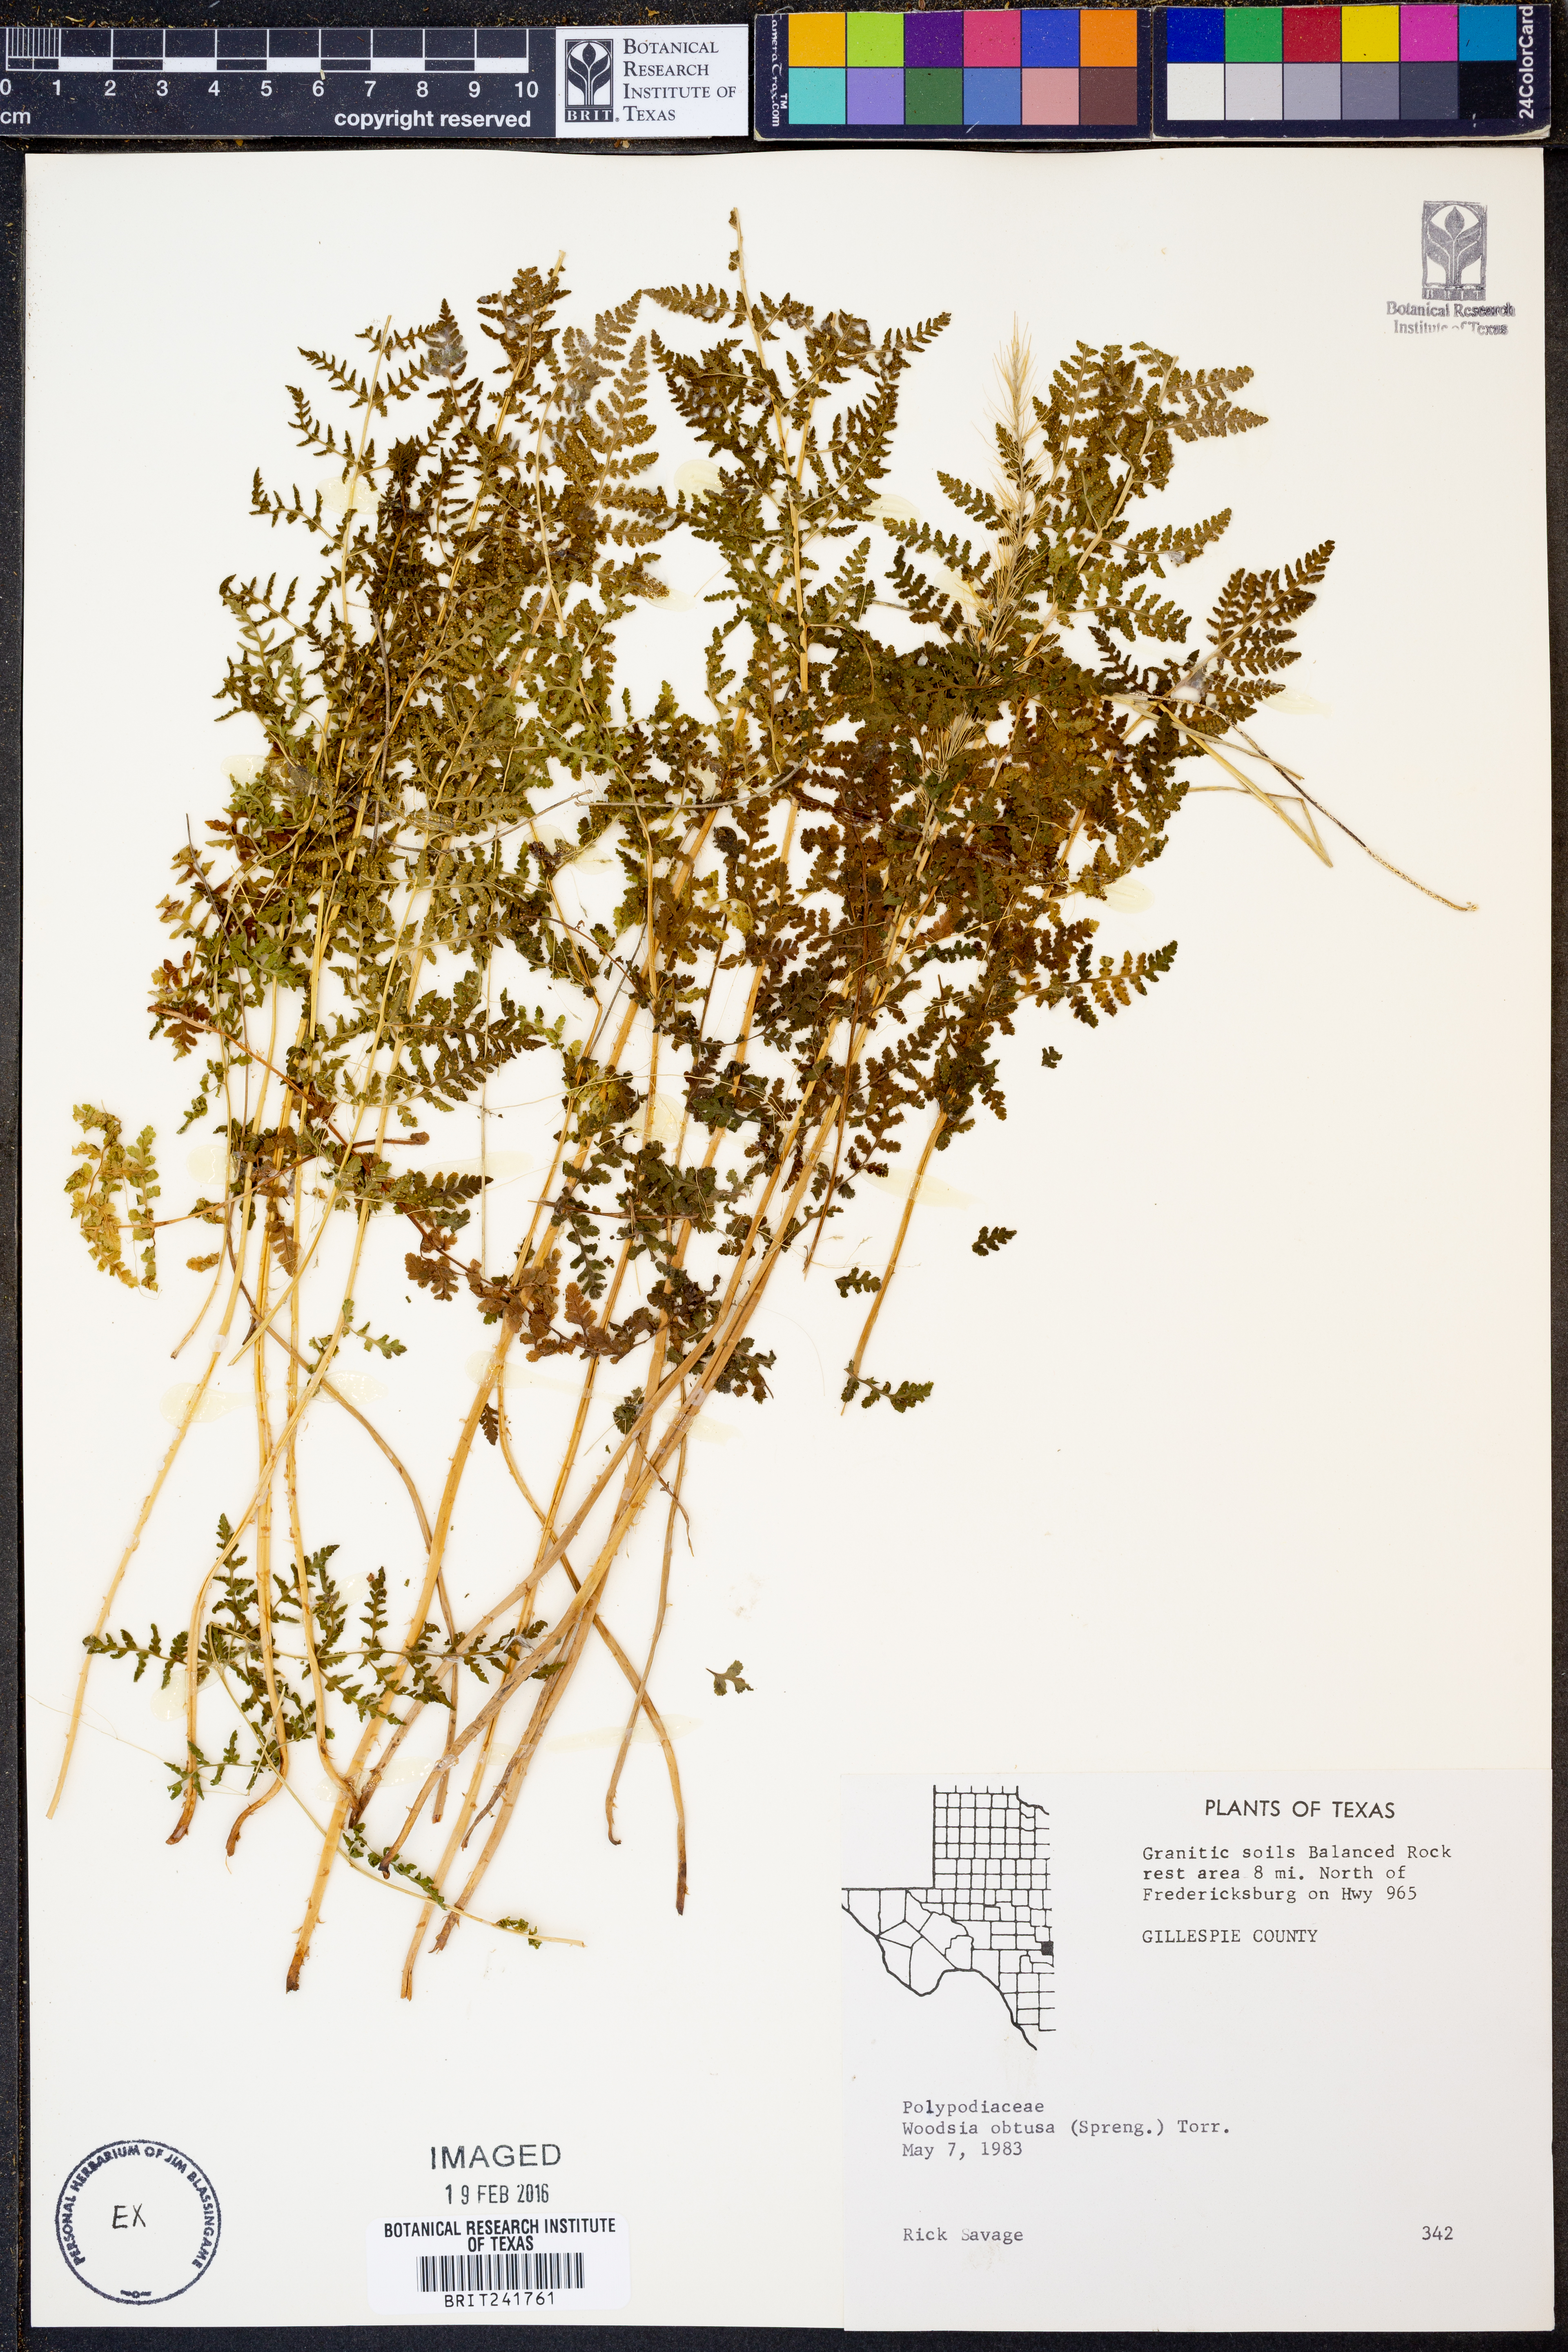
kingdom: Plantae
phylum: Tracheophyta
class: Polypodiopsida
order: Polypodiales
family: Woodsiaceae
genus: Physematium
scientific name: Physematium obtusum
